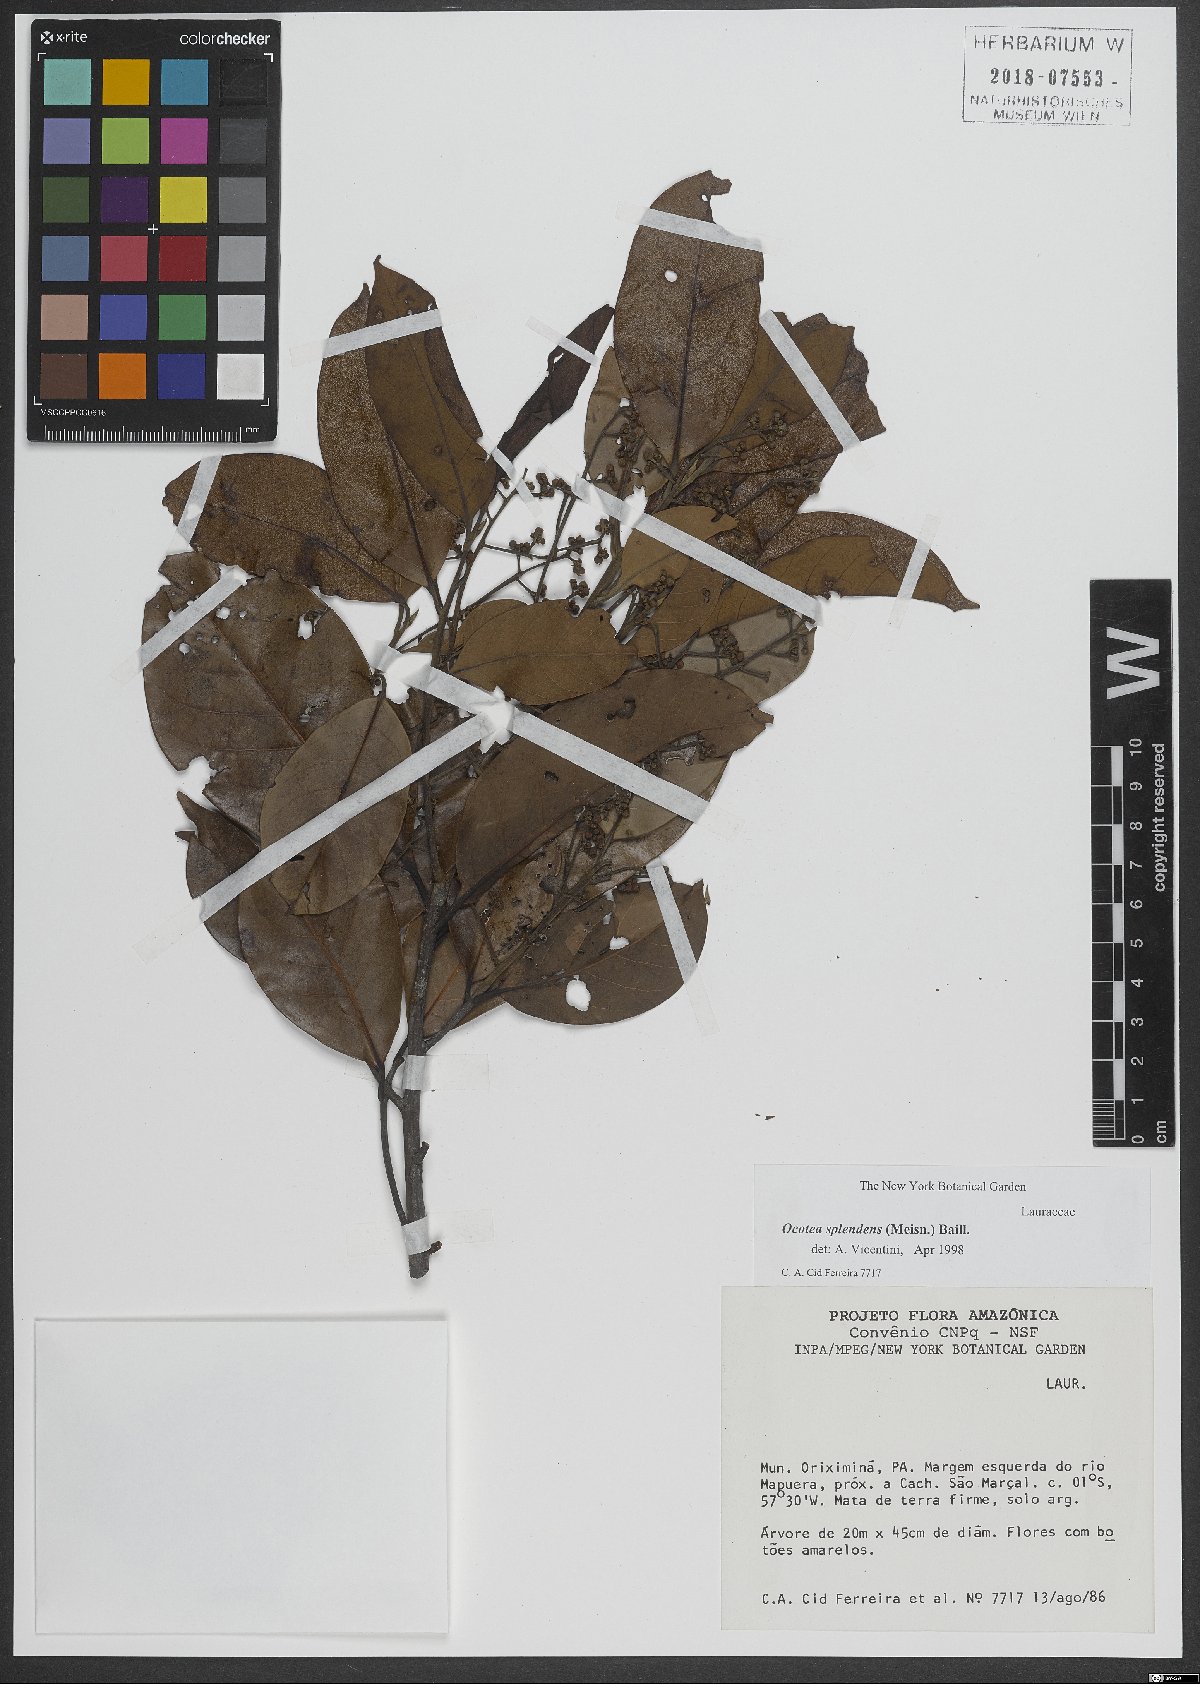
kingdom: Plantae
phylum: Tracheophyta
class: Magnoliopsida
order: Laurales
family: Lauraceae
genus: Ocotea
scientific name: Ocotea splendens
